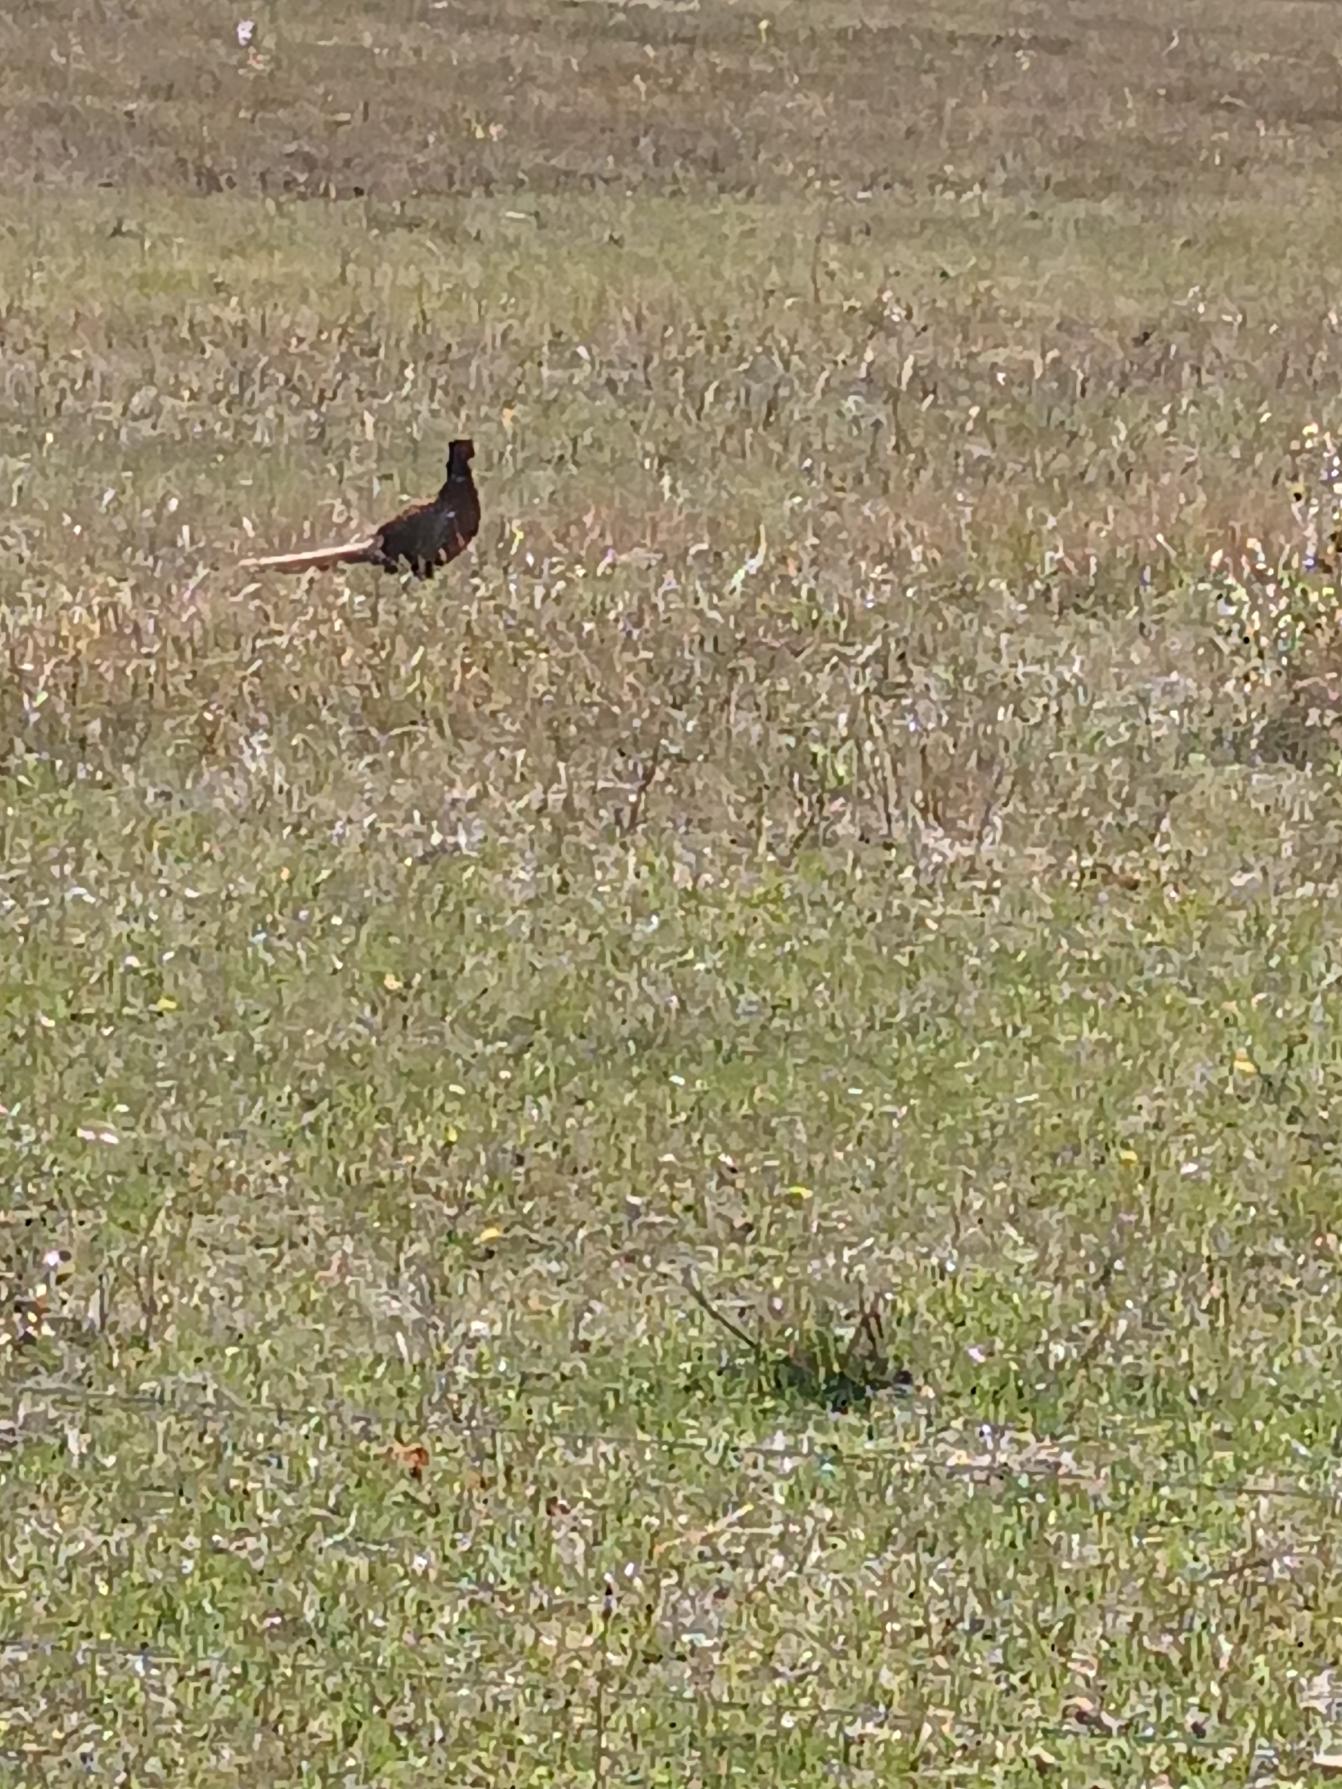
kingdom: Animalia
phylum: Chordata
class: Aves
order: Galliformes
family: Phasianidae
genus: Phasianus
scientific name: Phasianus colchicus
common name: Fasan
